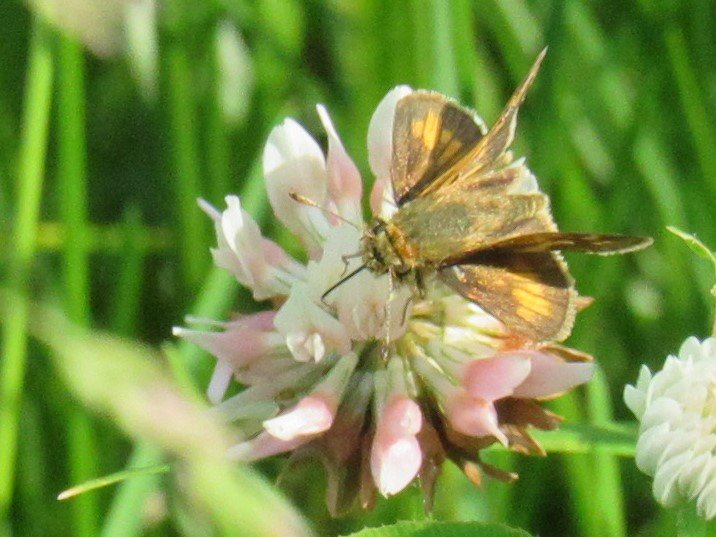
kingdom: Animalia
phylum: Arthropoda
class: Insecta
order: Lepidoptera
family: Hesperiidae
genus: Polites
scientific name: Polites coras
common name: Peck's Skipper
